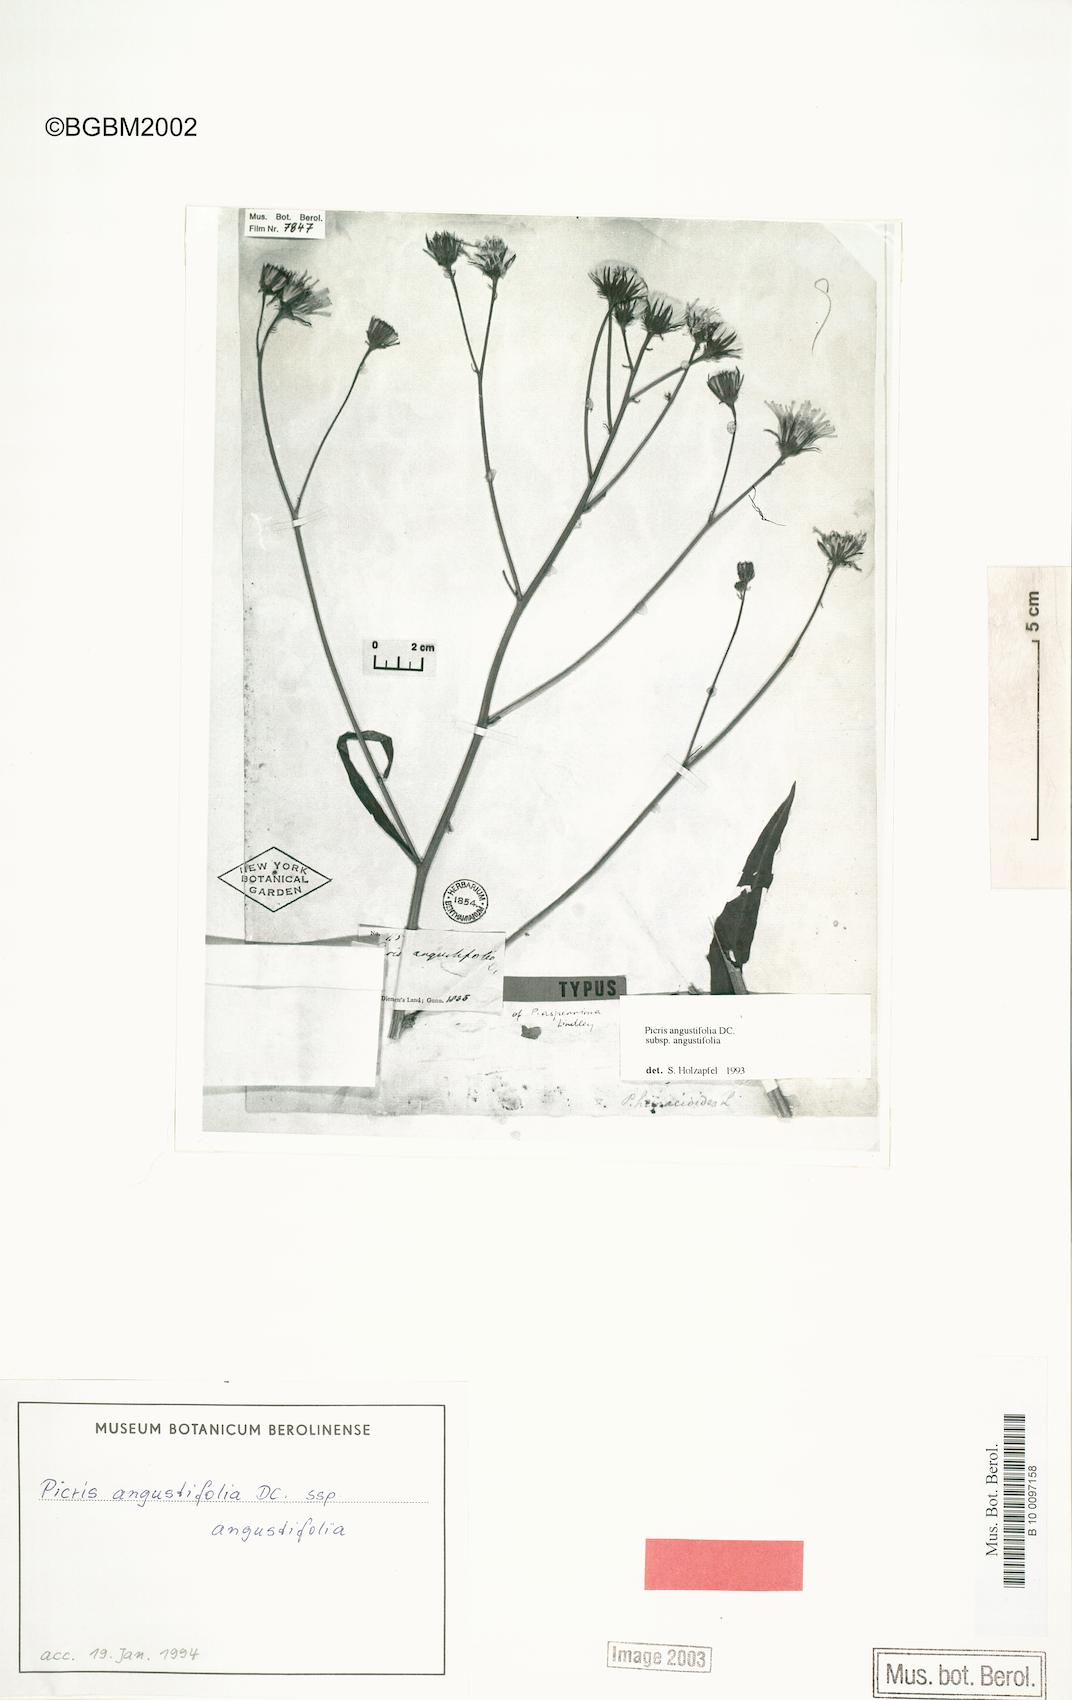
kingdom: Plantae
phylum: Tracheophyta
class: Magnoliopsida
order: Asterales
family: Asteraceae
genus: Picris
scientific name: Picris angustifolia
